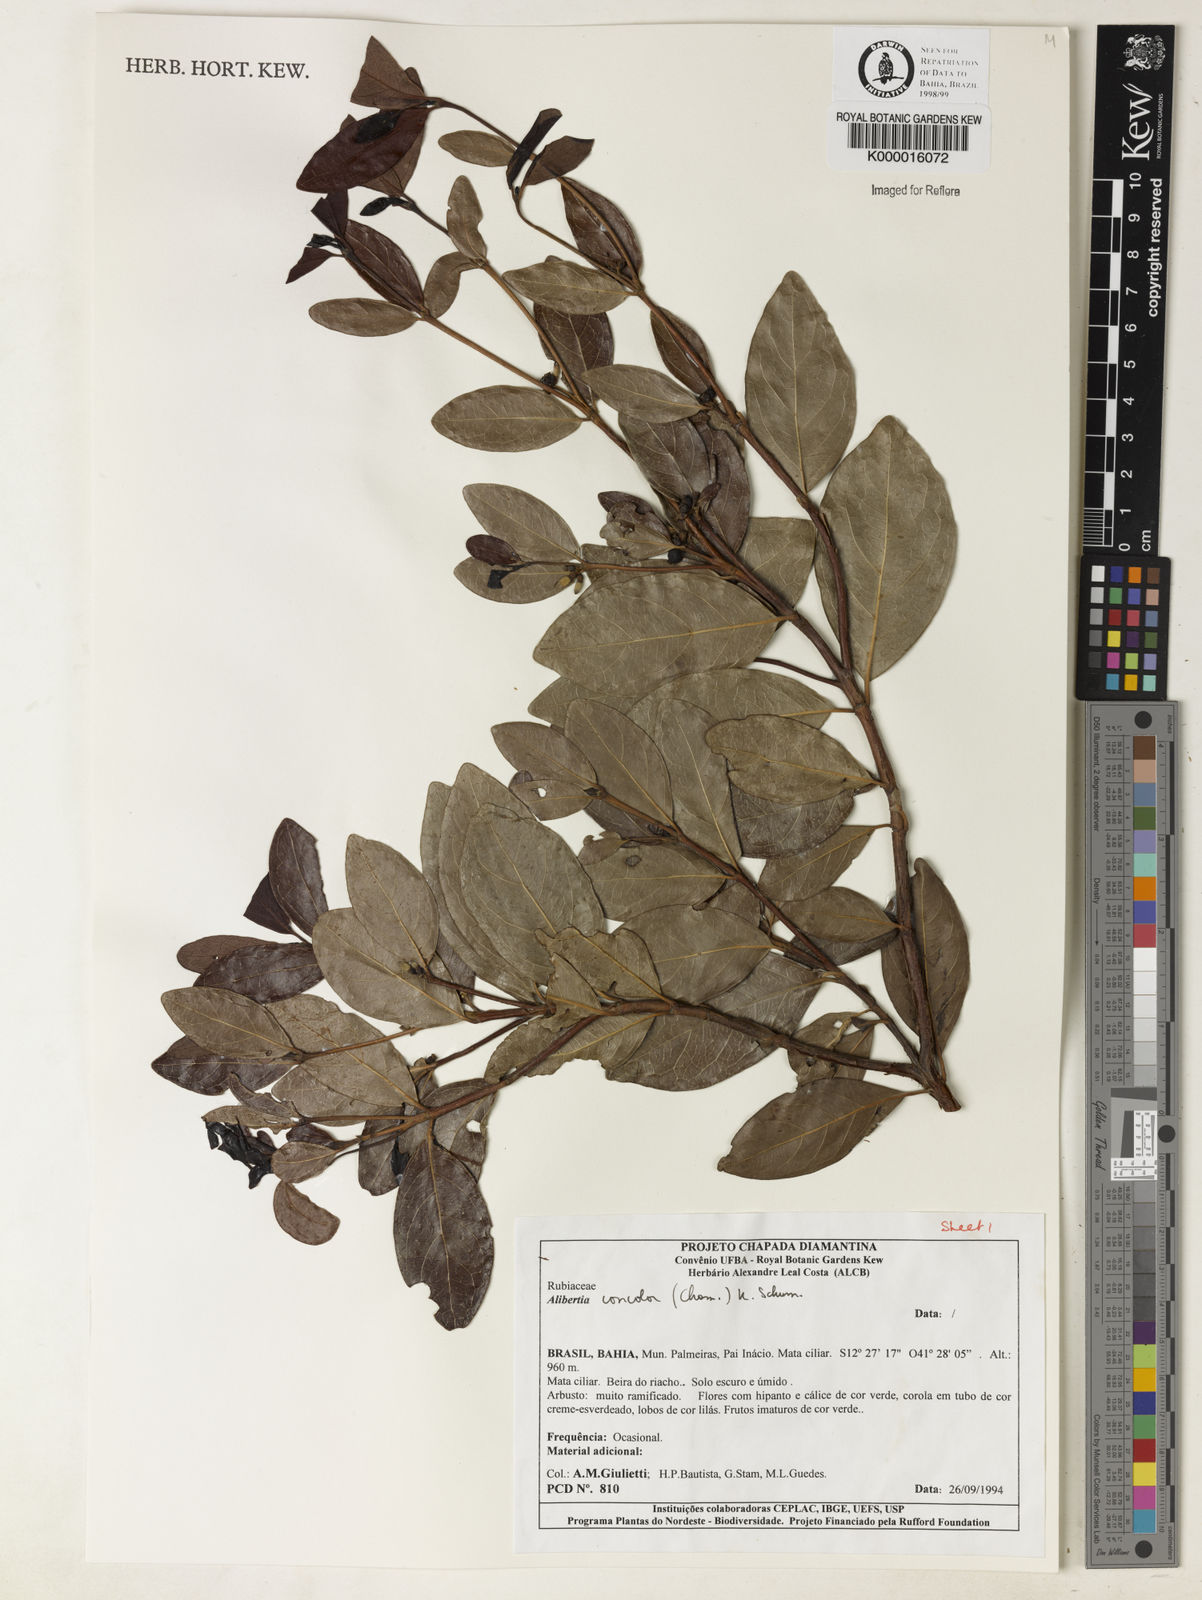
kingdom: Plantae
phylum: Tracheophyta
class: Magnoliopsida
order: Gentianales
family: Rubiaceae
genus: Cordiera
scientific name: Cordiera concolor
